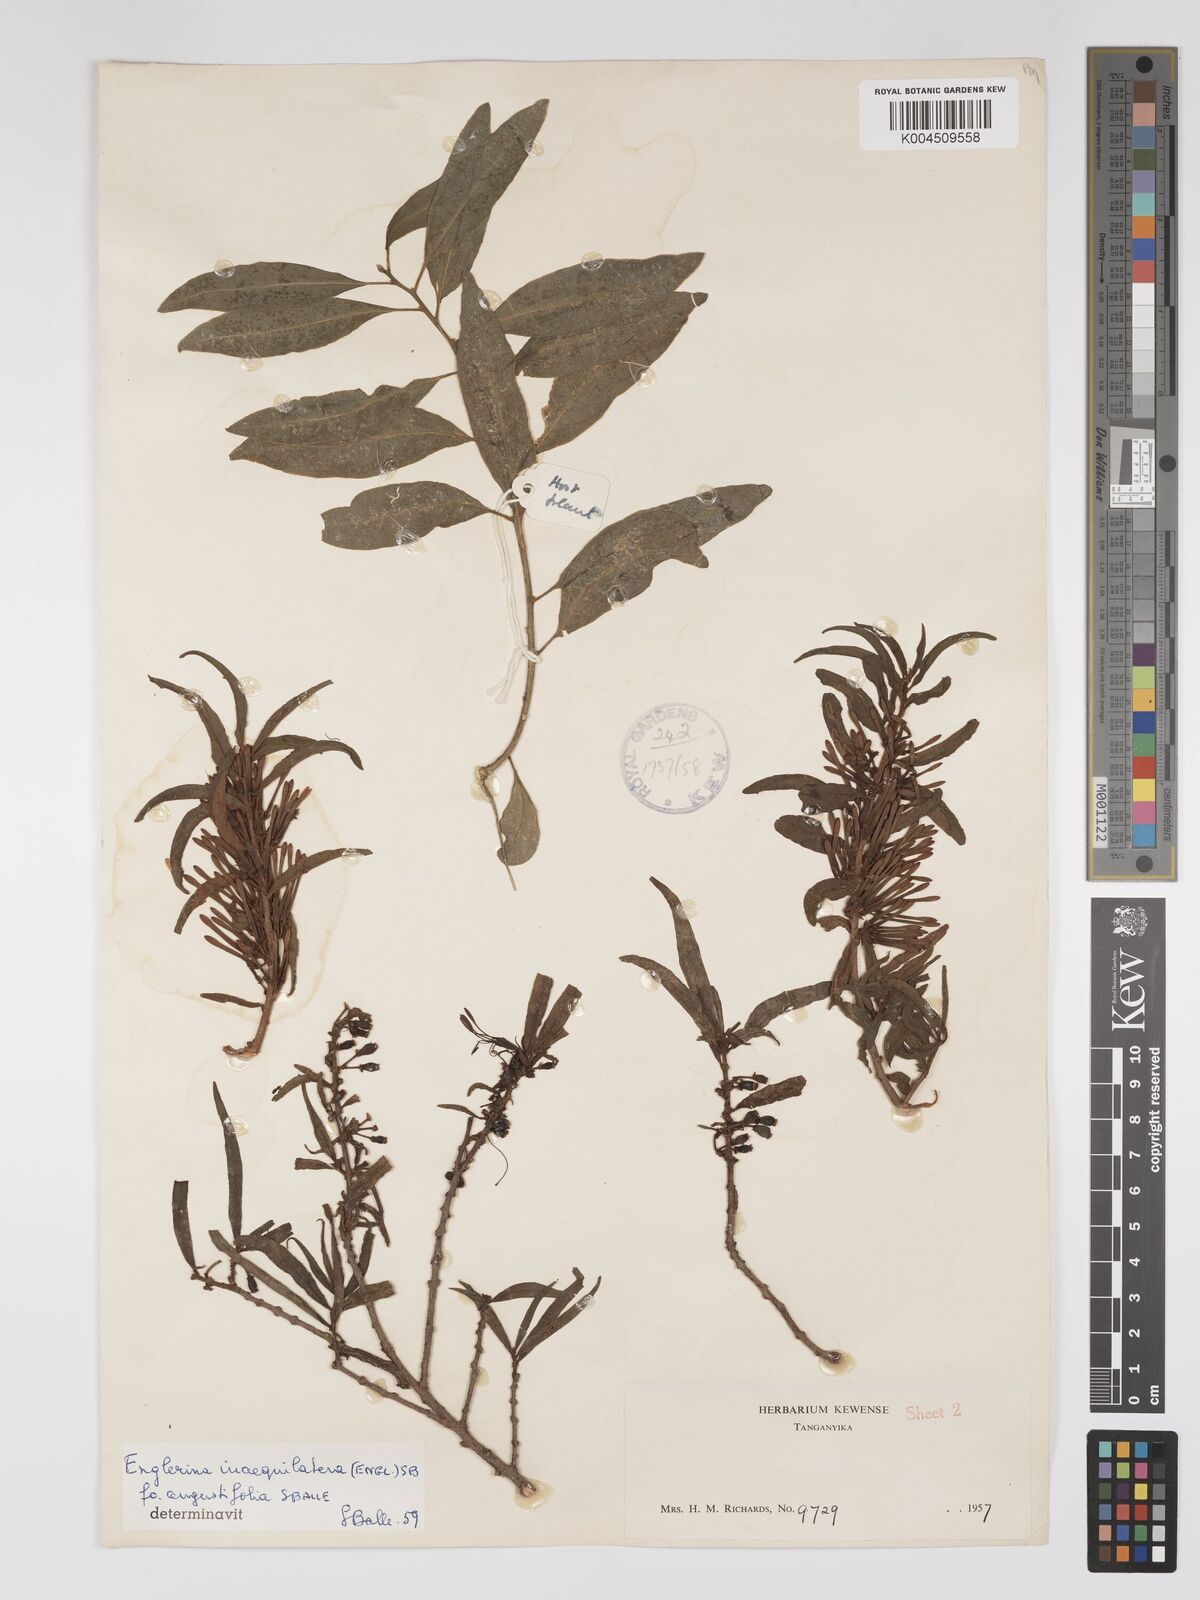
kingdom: Plantae
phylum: Tracheophyta
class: Magnoliopsida
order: Santalales
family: Loranthaceae
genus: Englerina
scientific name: Englerina inaequilatera
